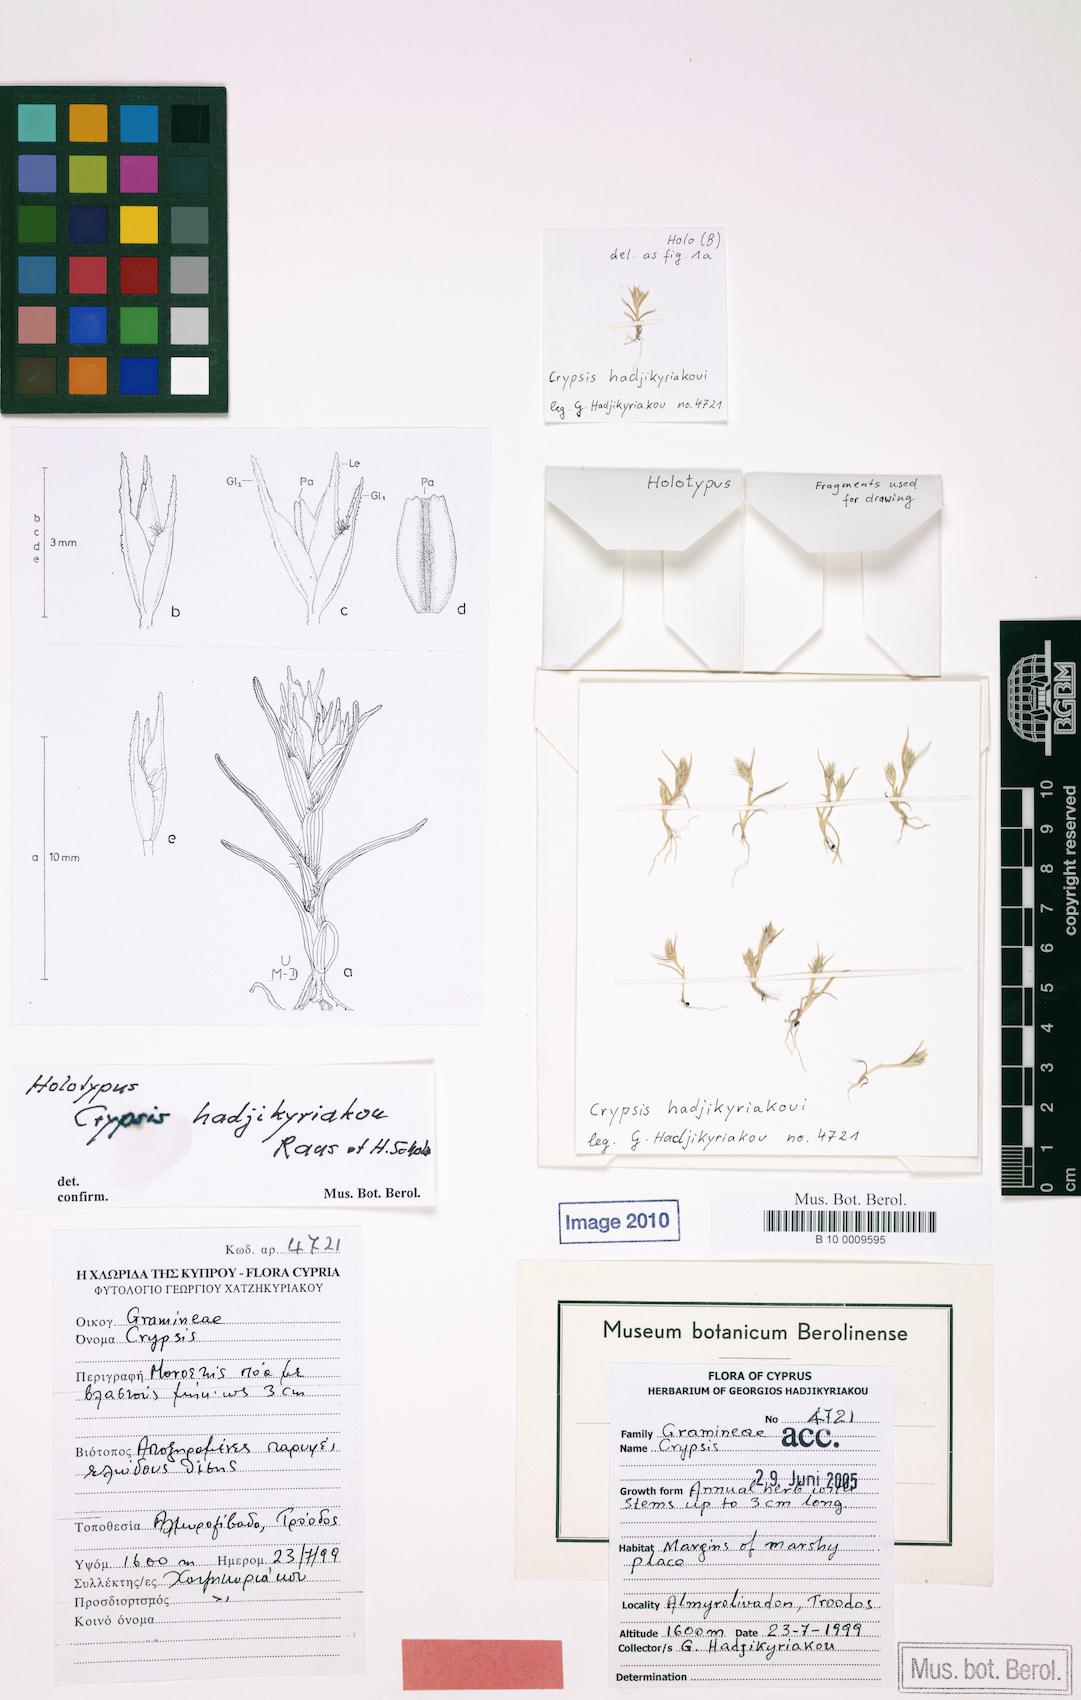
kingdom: Plantae
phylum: Tracheophyta
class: Liliopsida
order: Poales
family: Poaceae
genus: Sporobolus
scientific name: Sporobolus hadjikyriakou
